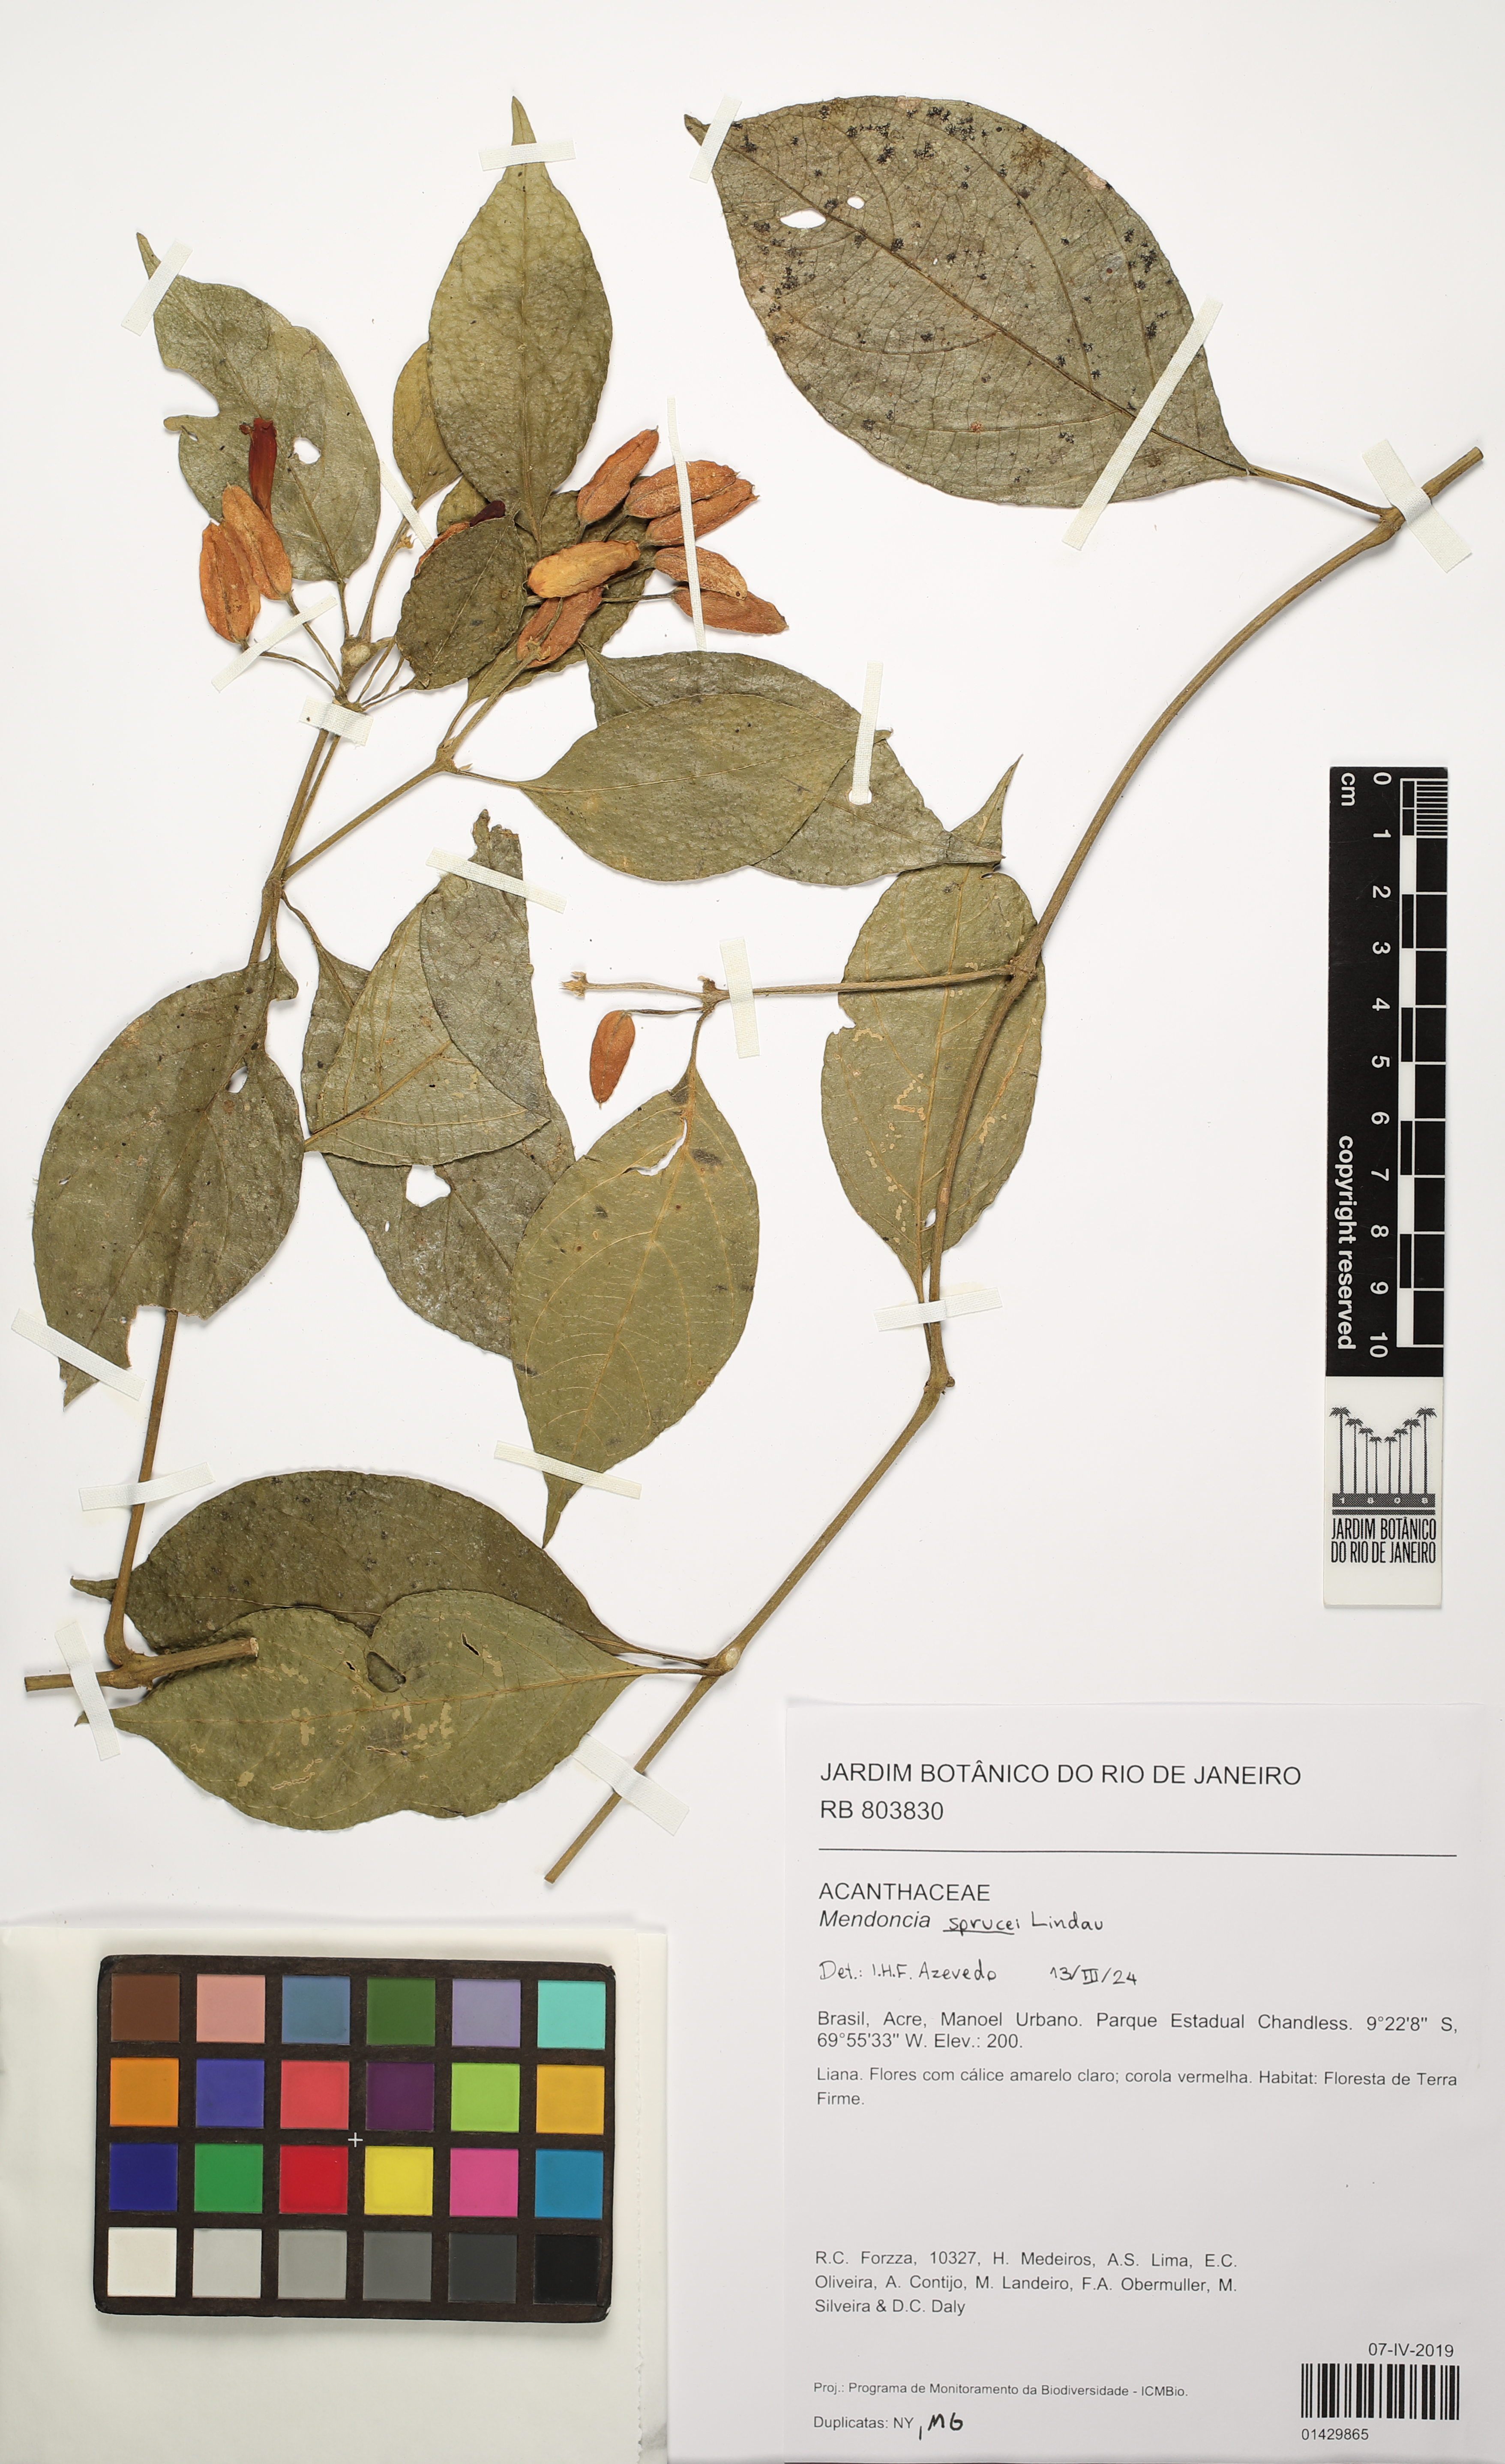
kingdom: Plantae
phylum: Tracheophyta
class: Magnoliopsida
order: Lamiales
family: Acanthaceae
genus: Mendoncia
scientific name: Mendoncia sprucei
